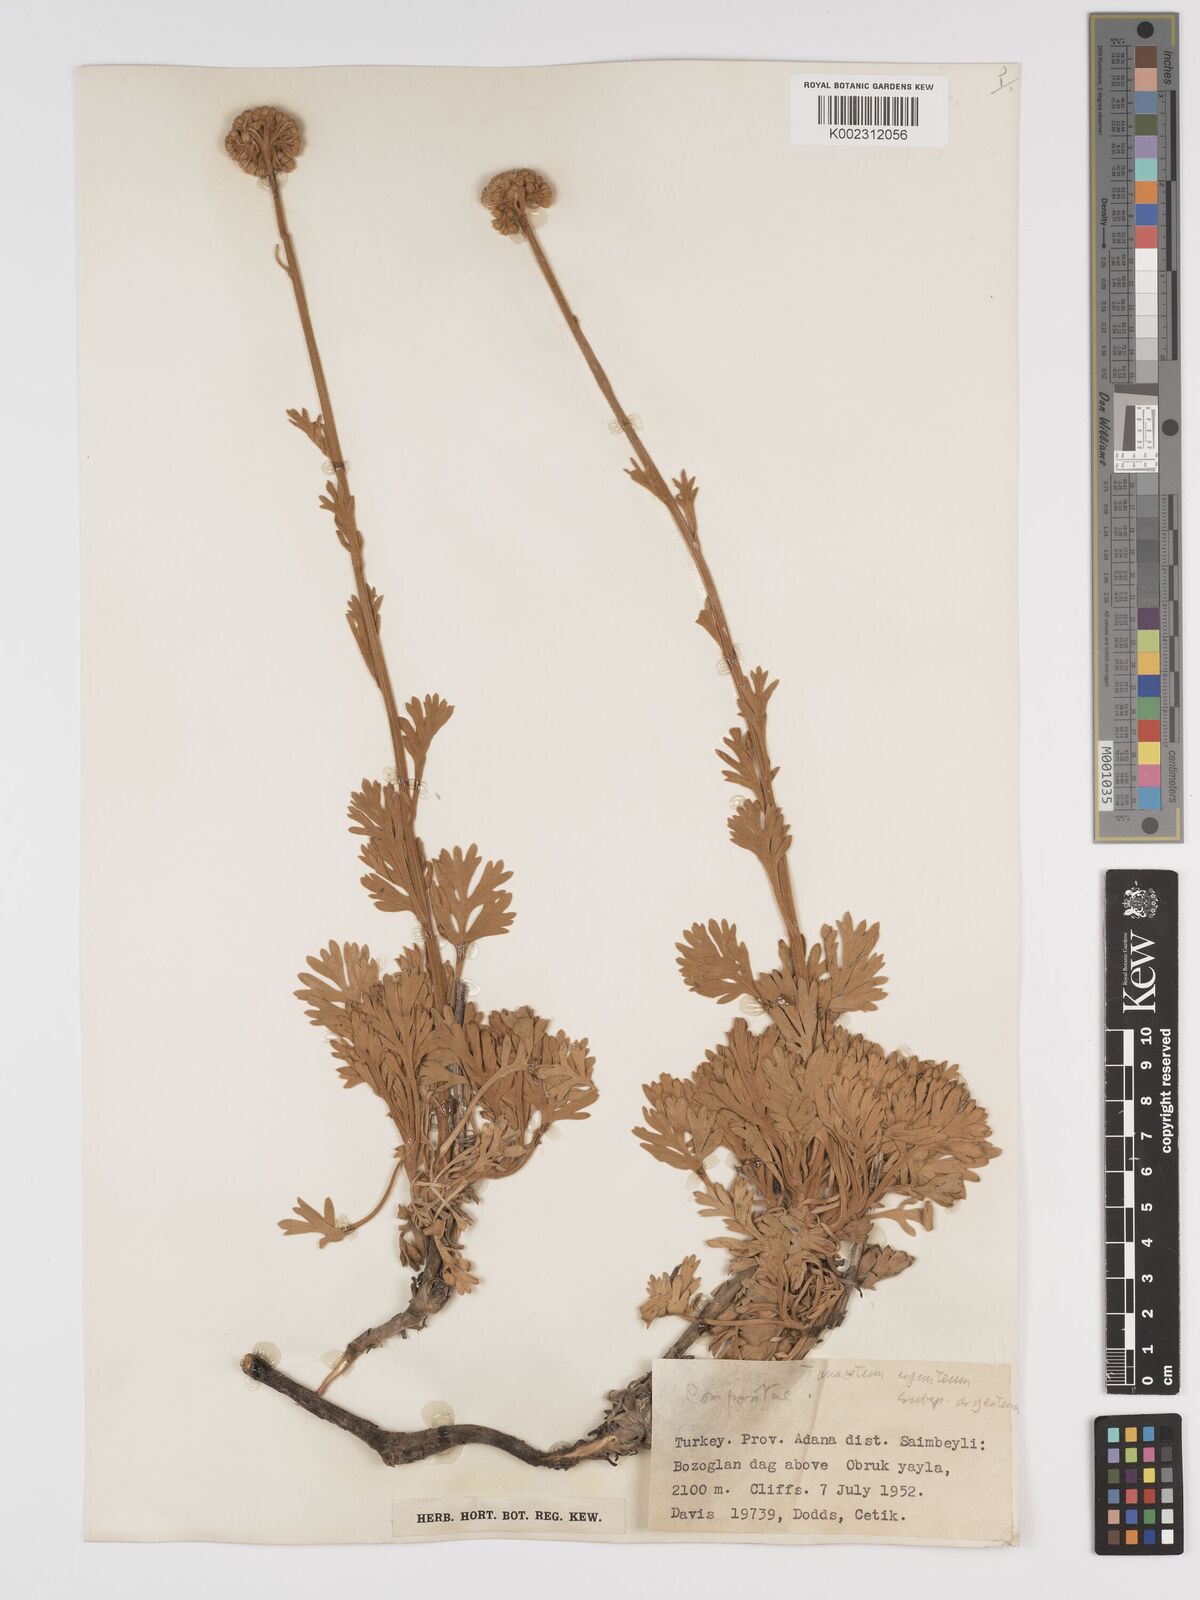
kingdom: Plantae
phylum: Tracheophyta
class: Magnoliopsida
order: Asterales
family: Asteraceae
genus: Tanacetum
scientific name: Tanacetum argenteum
